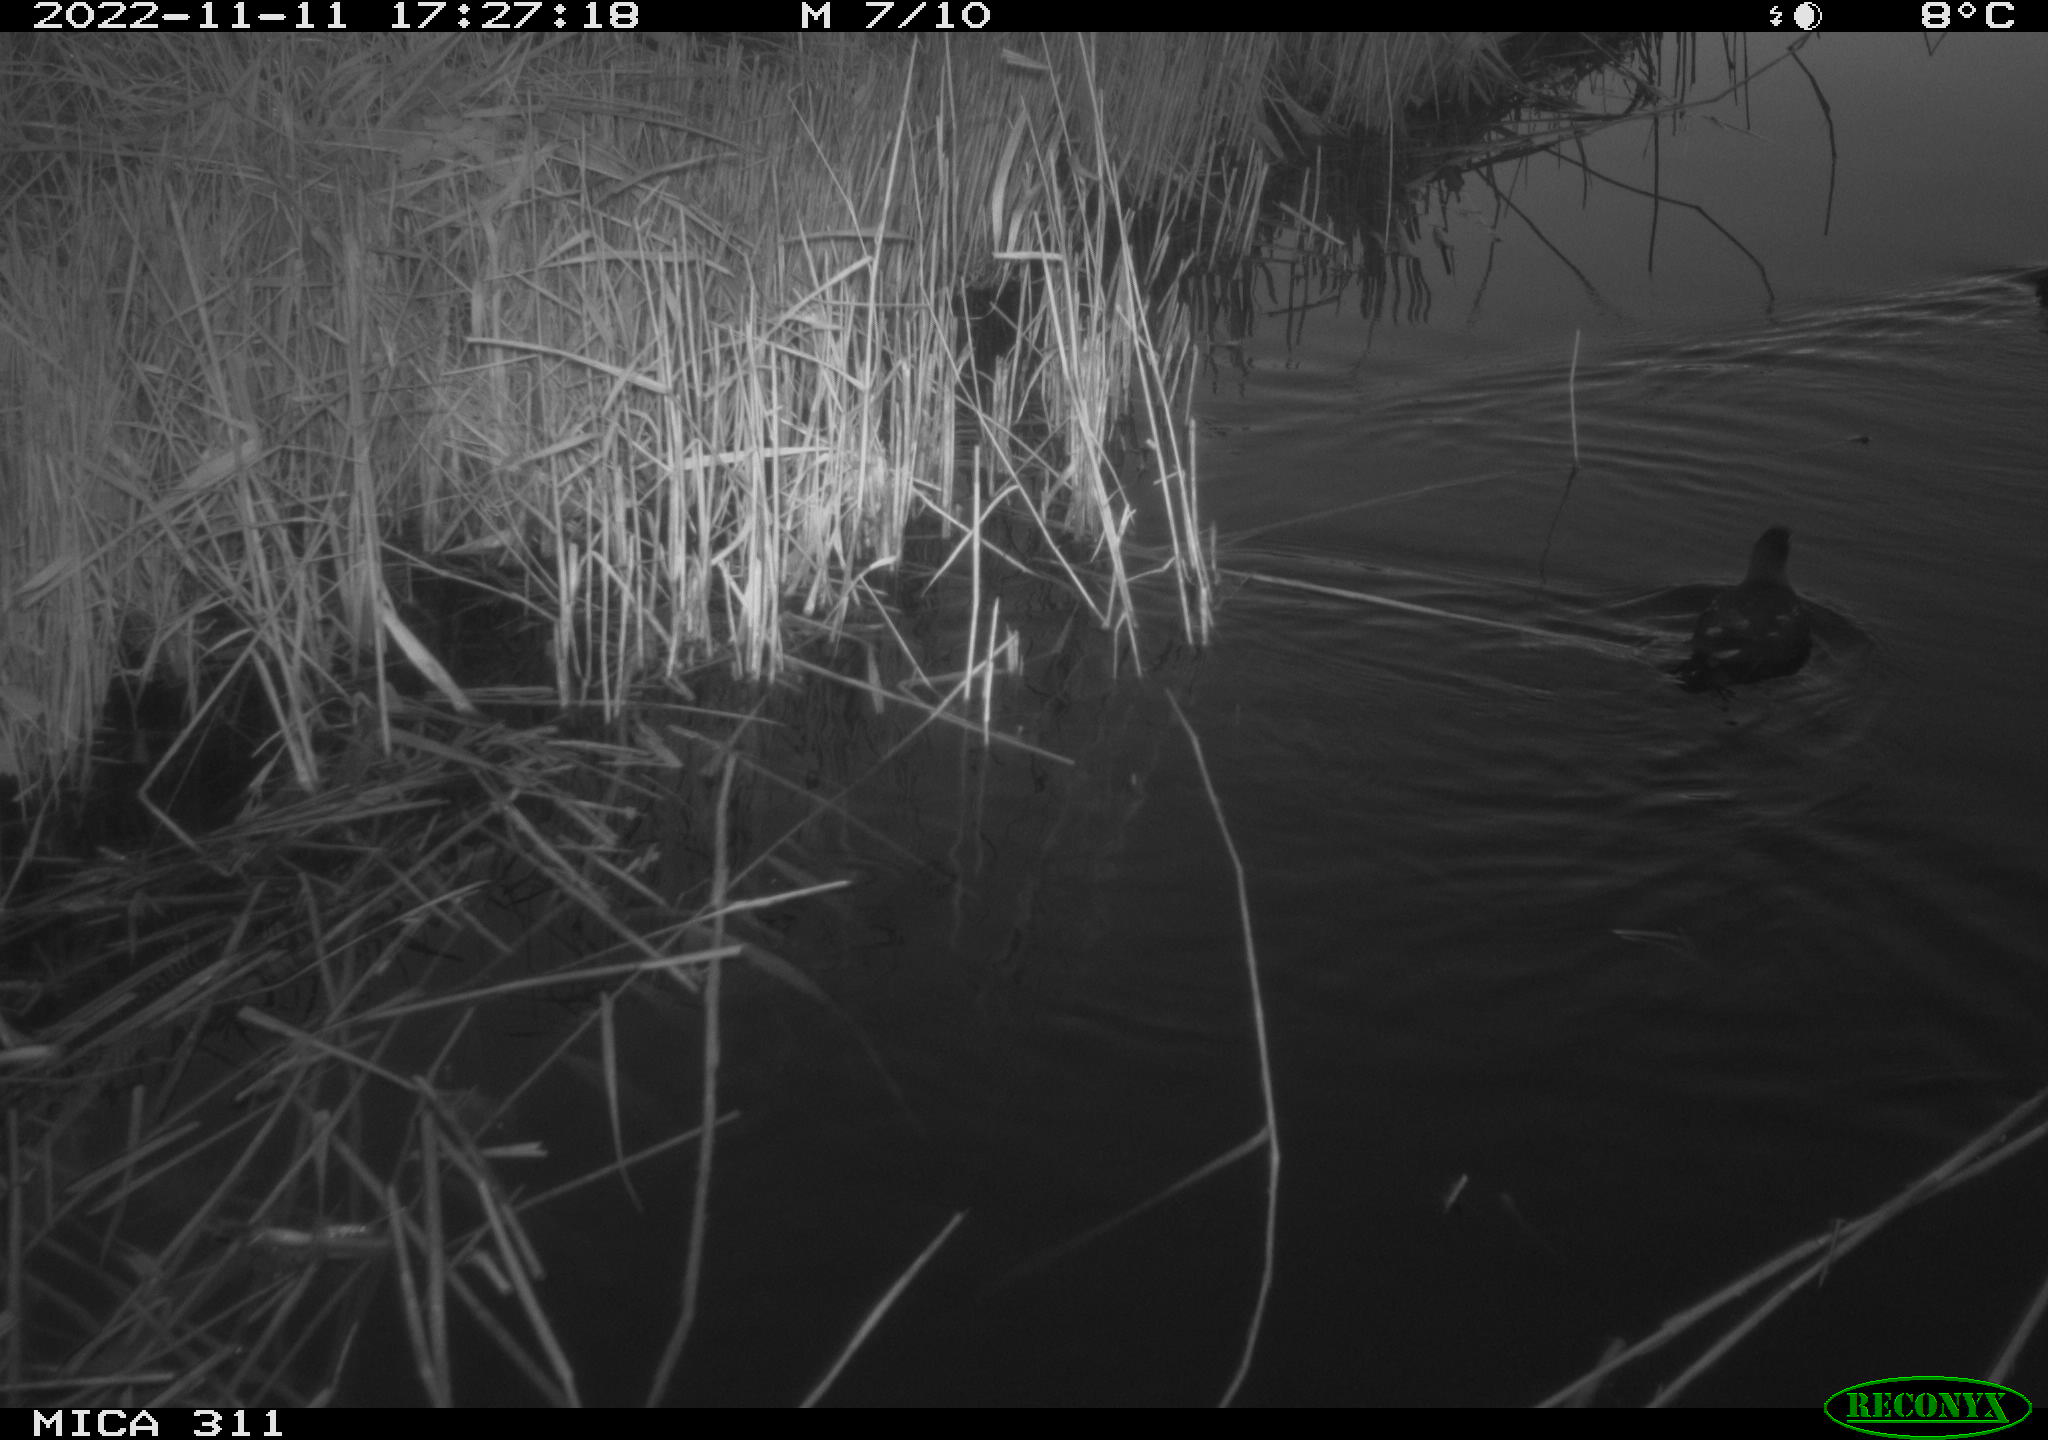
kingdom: Animalia
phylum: Chordata
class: Aves
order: Anseriformes
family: Anatidae
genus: Anas
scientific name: Anas
